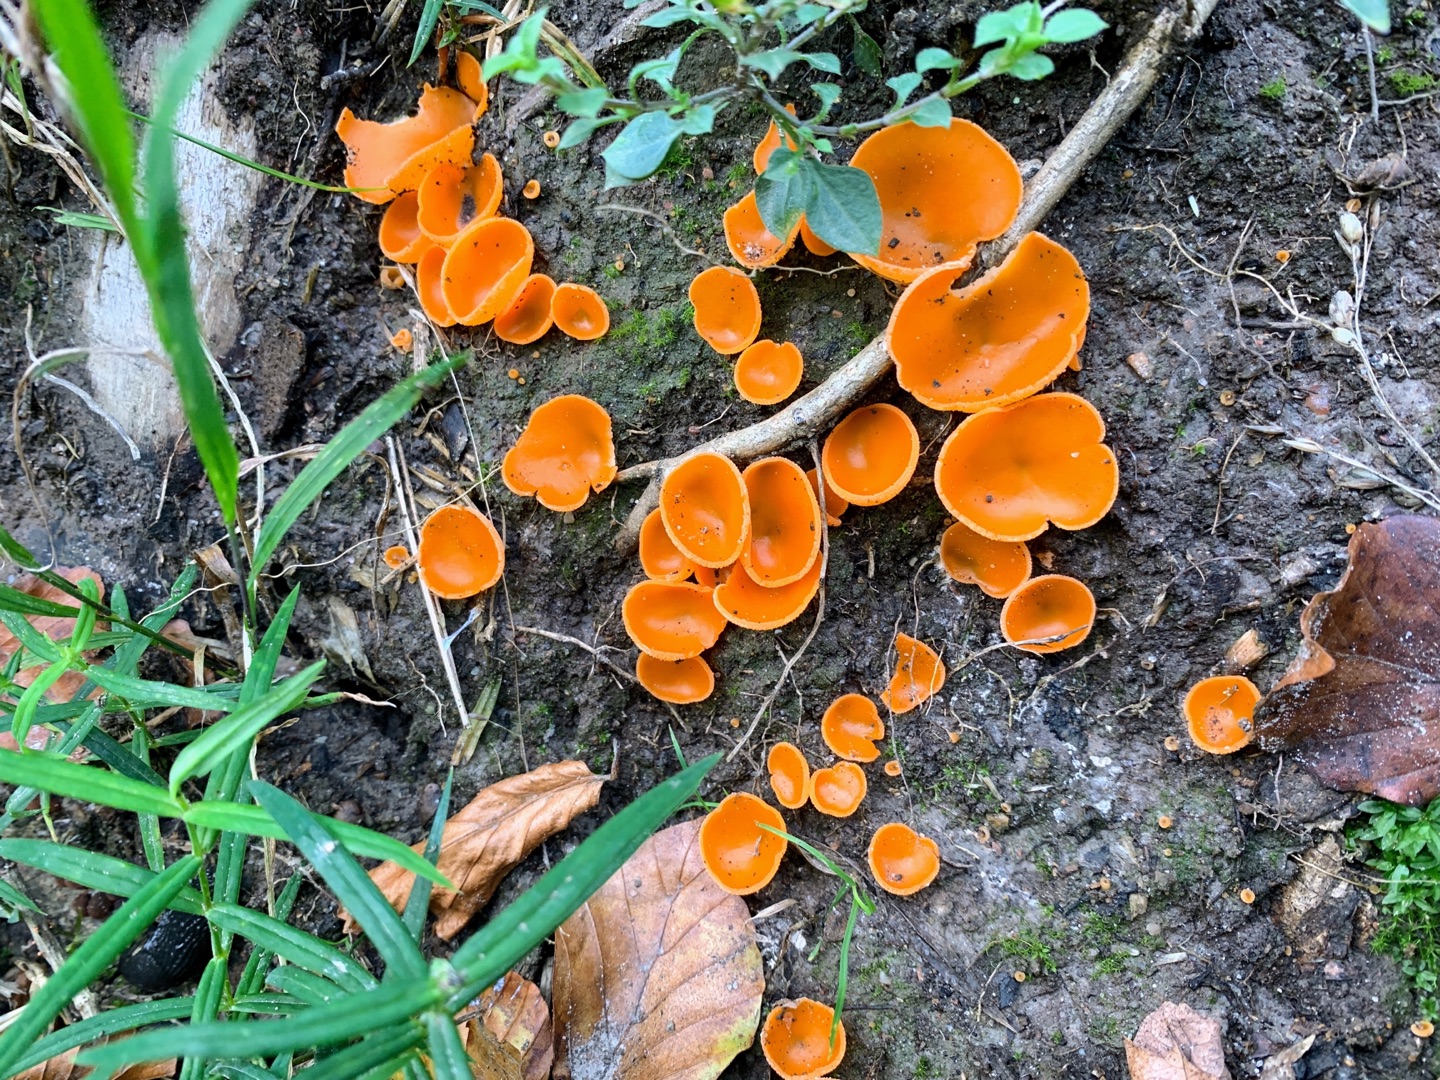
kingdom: Fungi
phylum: Ascomycota
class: Pezizomycetes
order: Pezizales
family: Pyronemataceae
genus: Aleuria
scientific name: Aleuria aurantia
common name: Almindelig orangebæger
